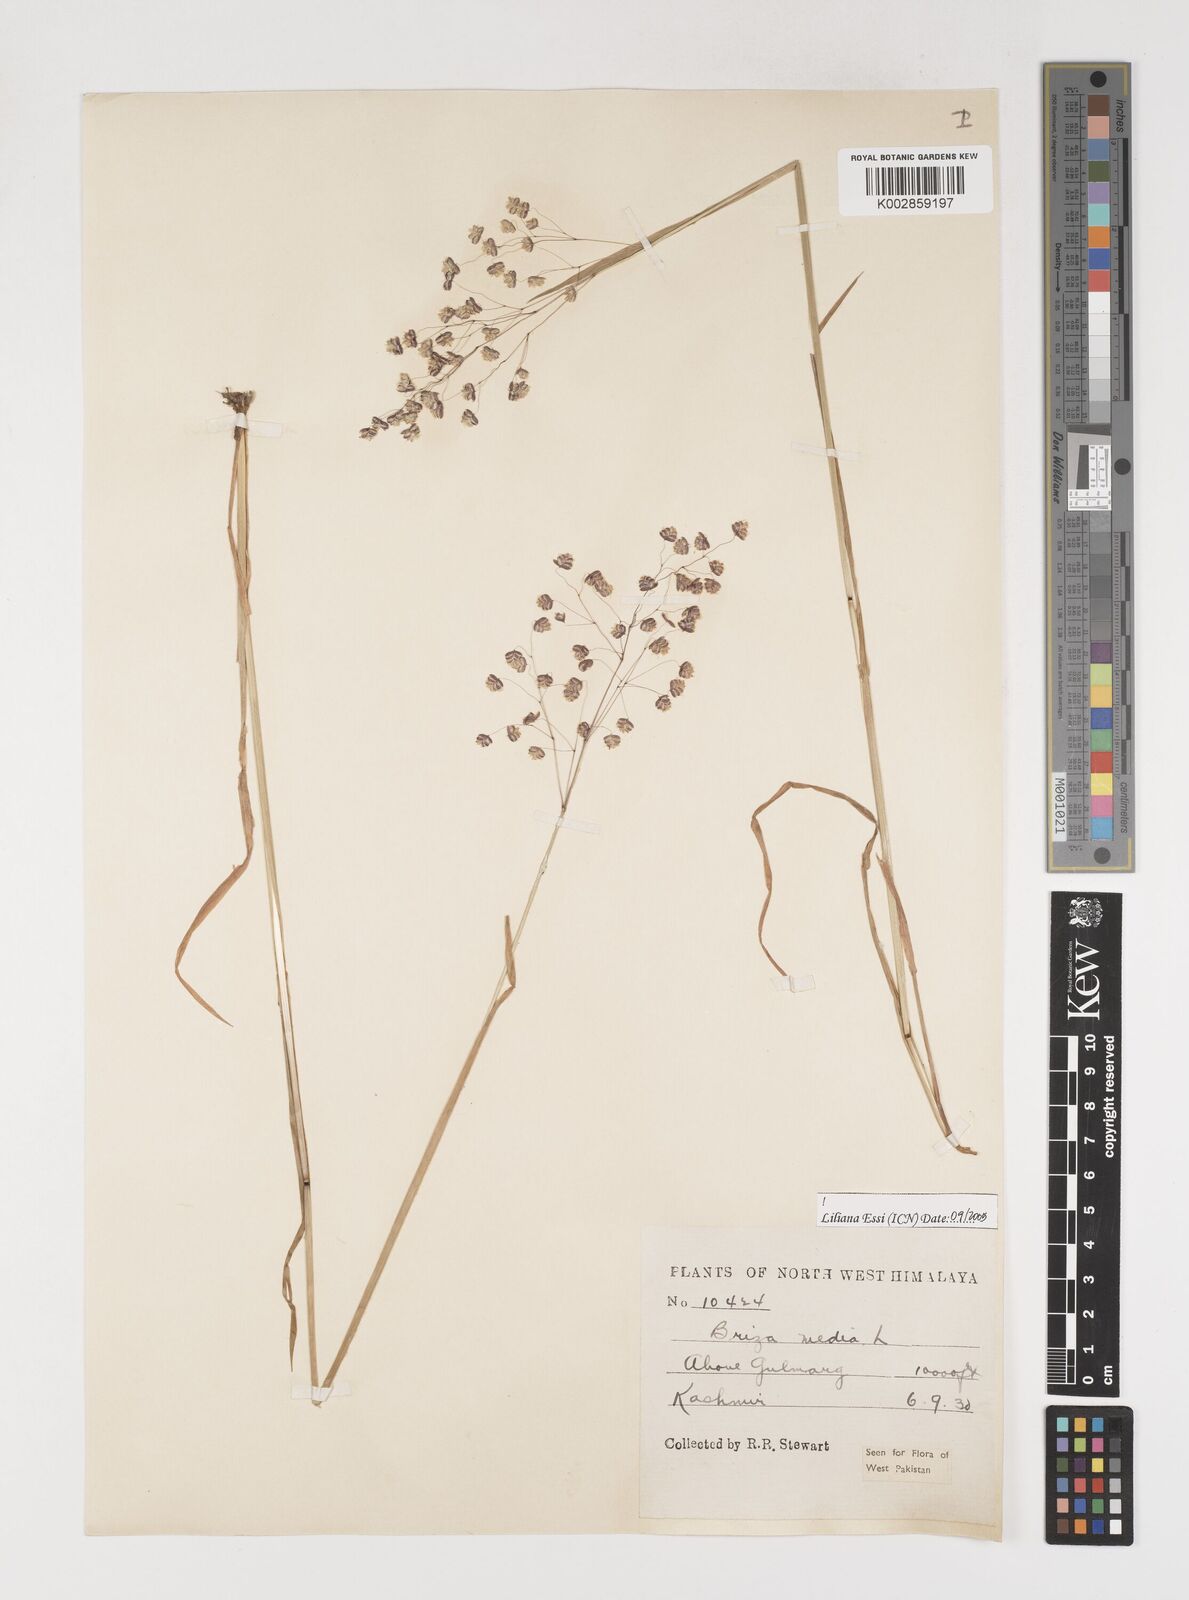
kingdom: Plantae
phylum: Tracheophyta
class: Liliopsida
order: Poales
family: Poaceae
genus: Briza
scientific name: Briza media
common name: Quaking grass
